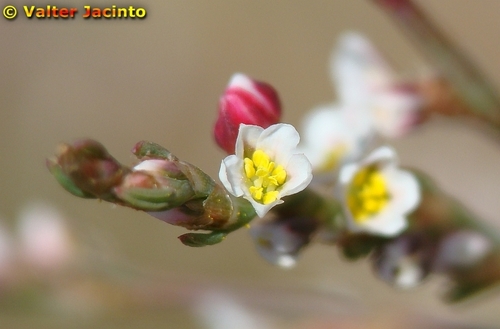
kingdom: Plantae
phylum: Tracheophyta
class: Magnoliopsida
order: Caryophyllales
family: Polygonaceae
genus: Polygonum
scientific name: Polygonum equisetiforme
